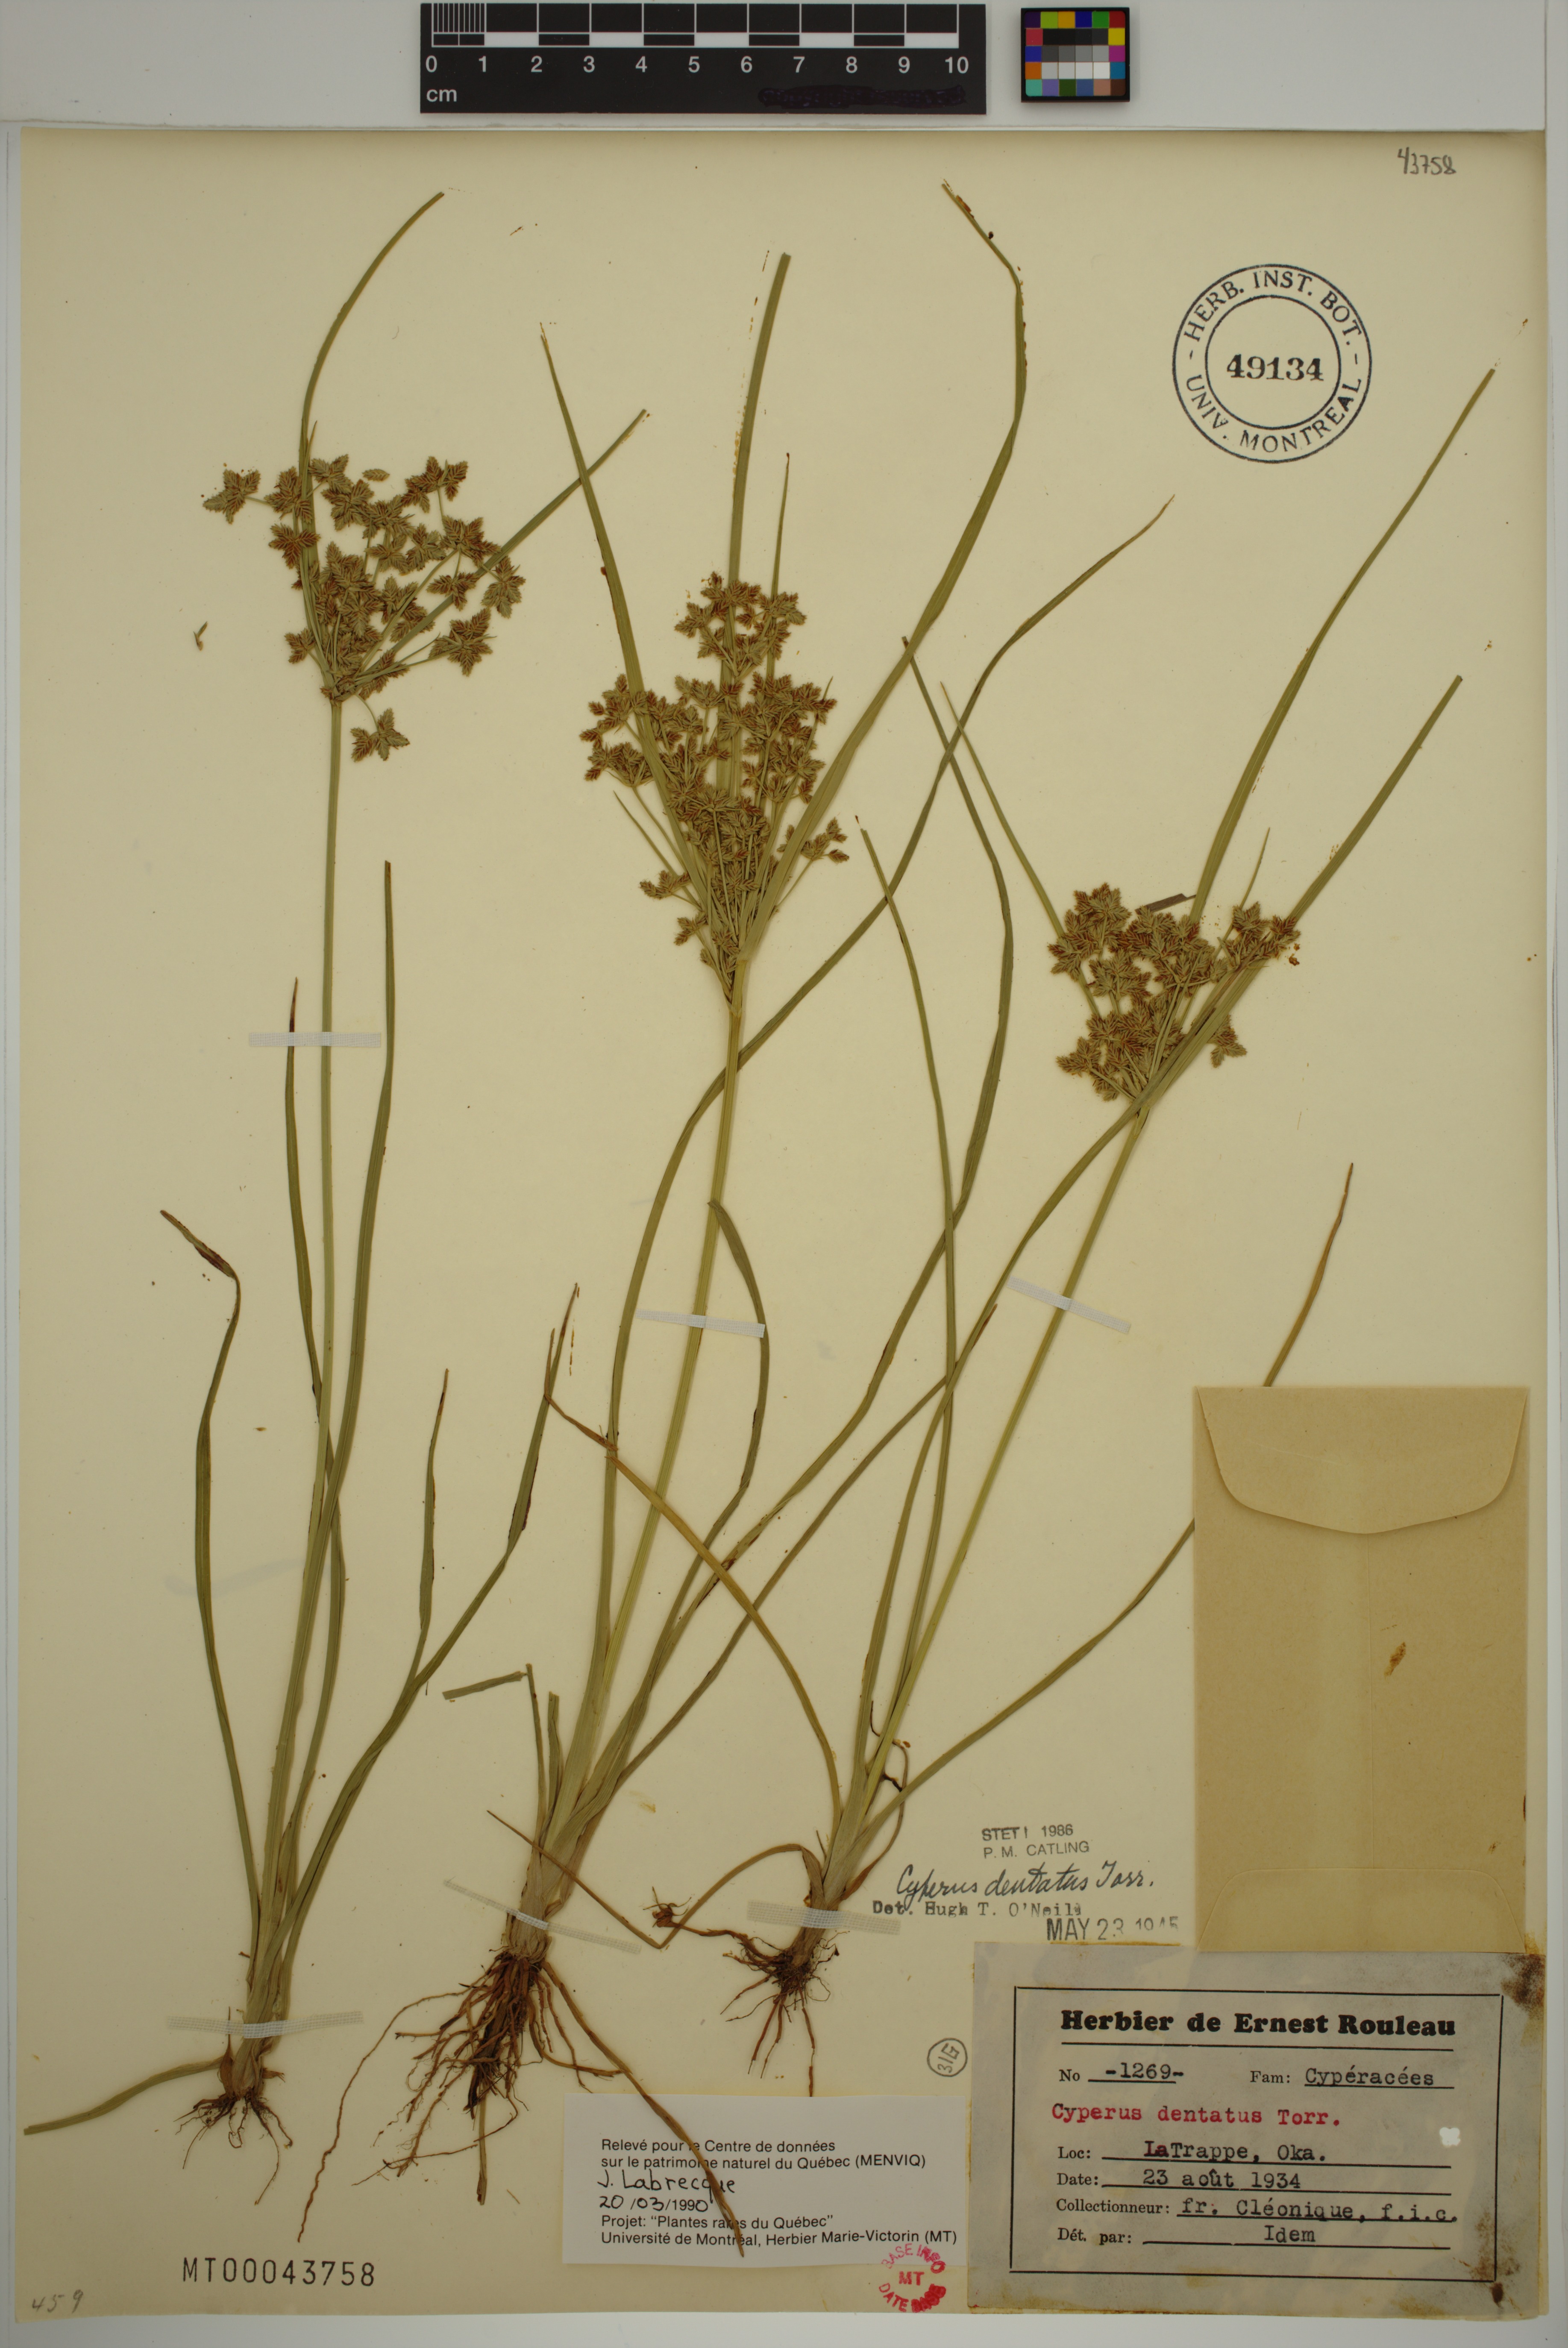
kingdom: Plantae
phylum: Tracheophyta
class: Liliopsida
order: Poales
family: Cyperaceae
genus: Cyperus
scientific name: Cyperus dentatus
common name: Dentate umbrella sedge
